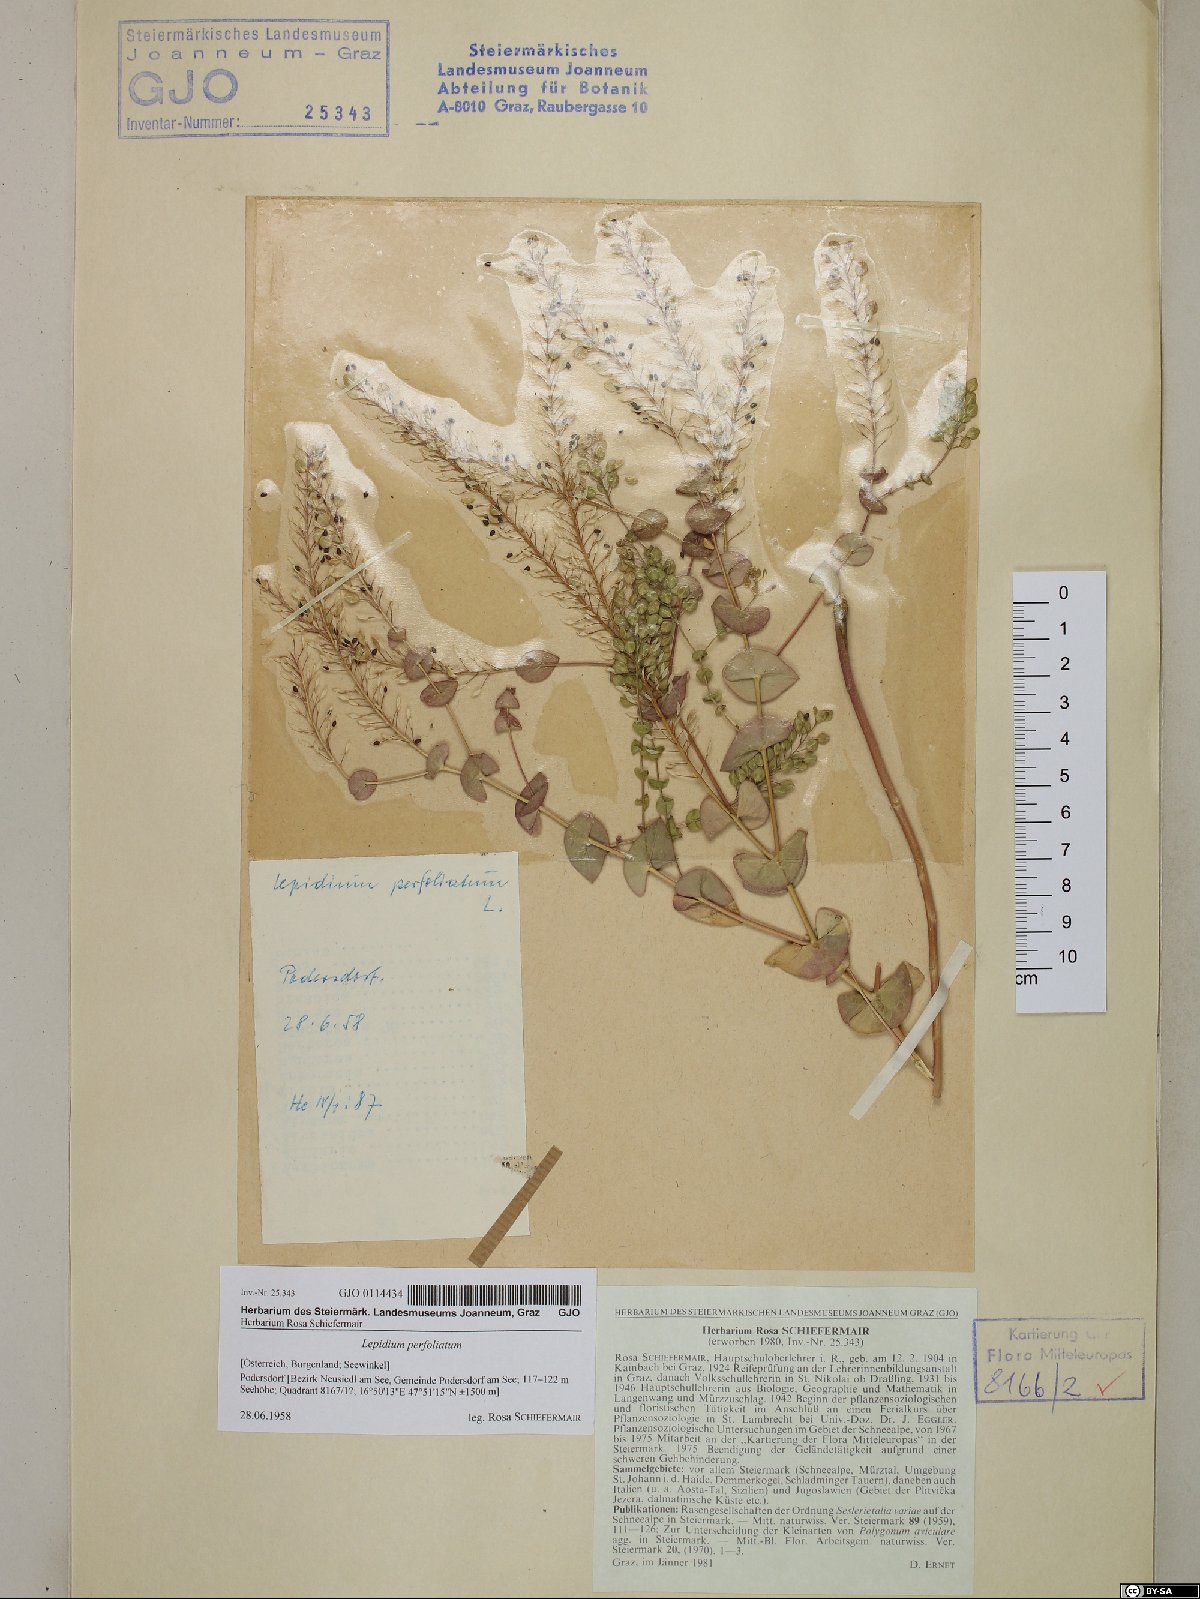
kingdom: Plantae
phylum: Tracheophyta
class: Magnoliopsida
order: Brassicales
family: Brassicaceae
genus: Lepidium
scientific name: Lepidium perfoliatum
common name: Perfoliate pepperwort
